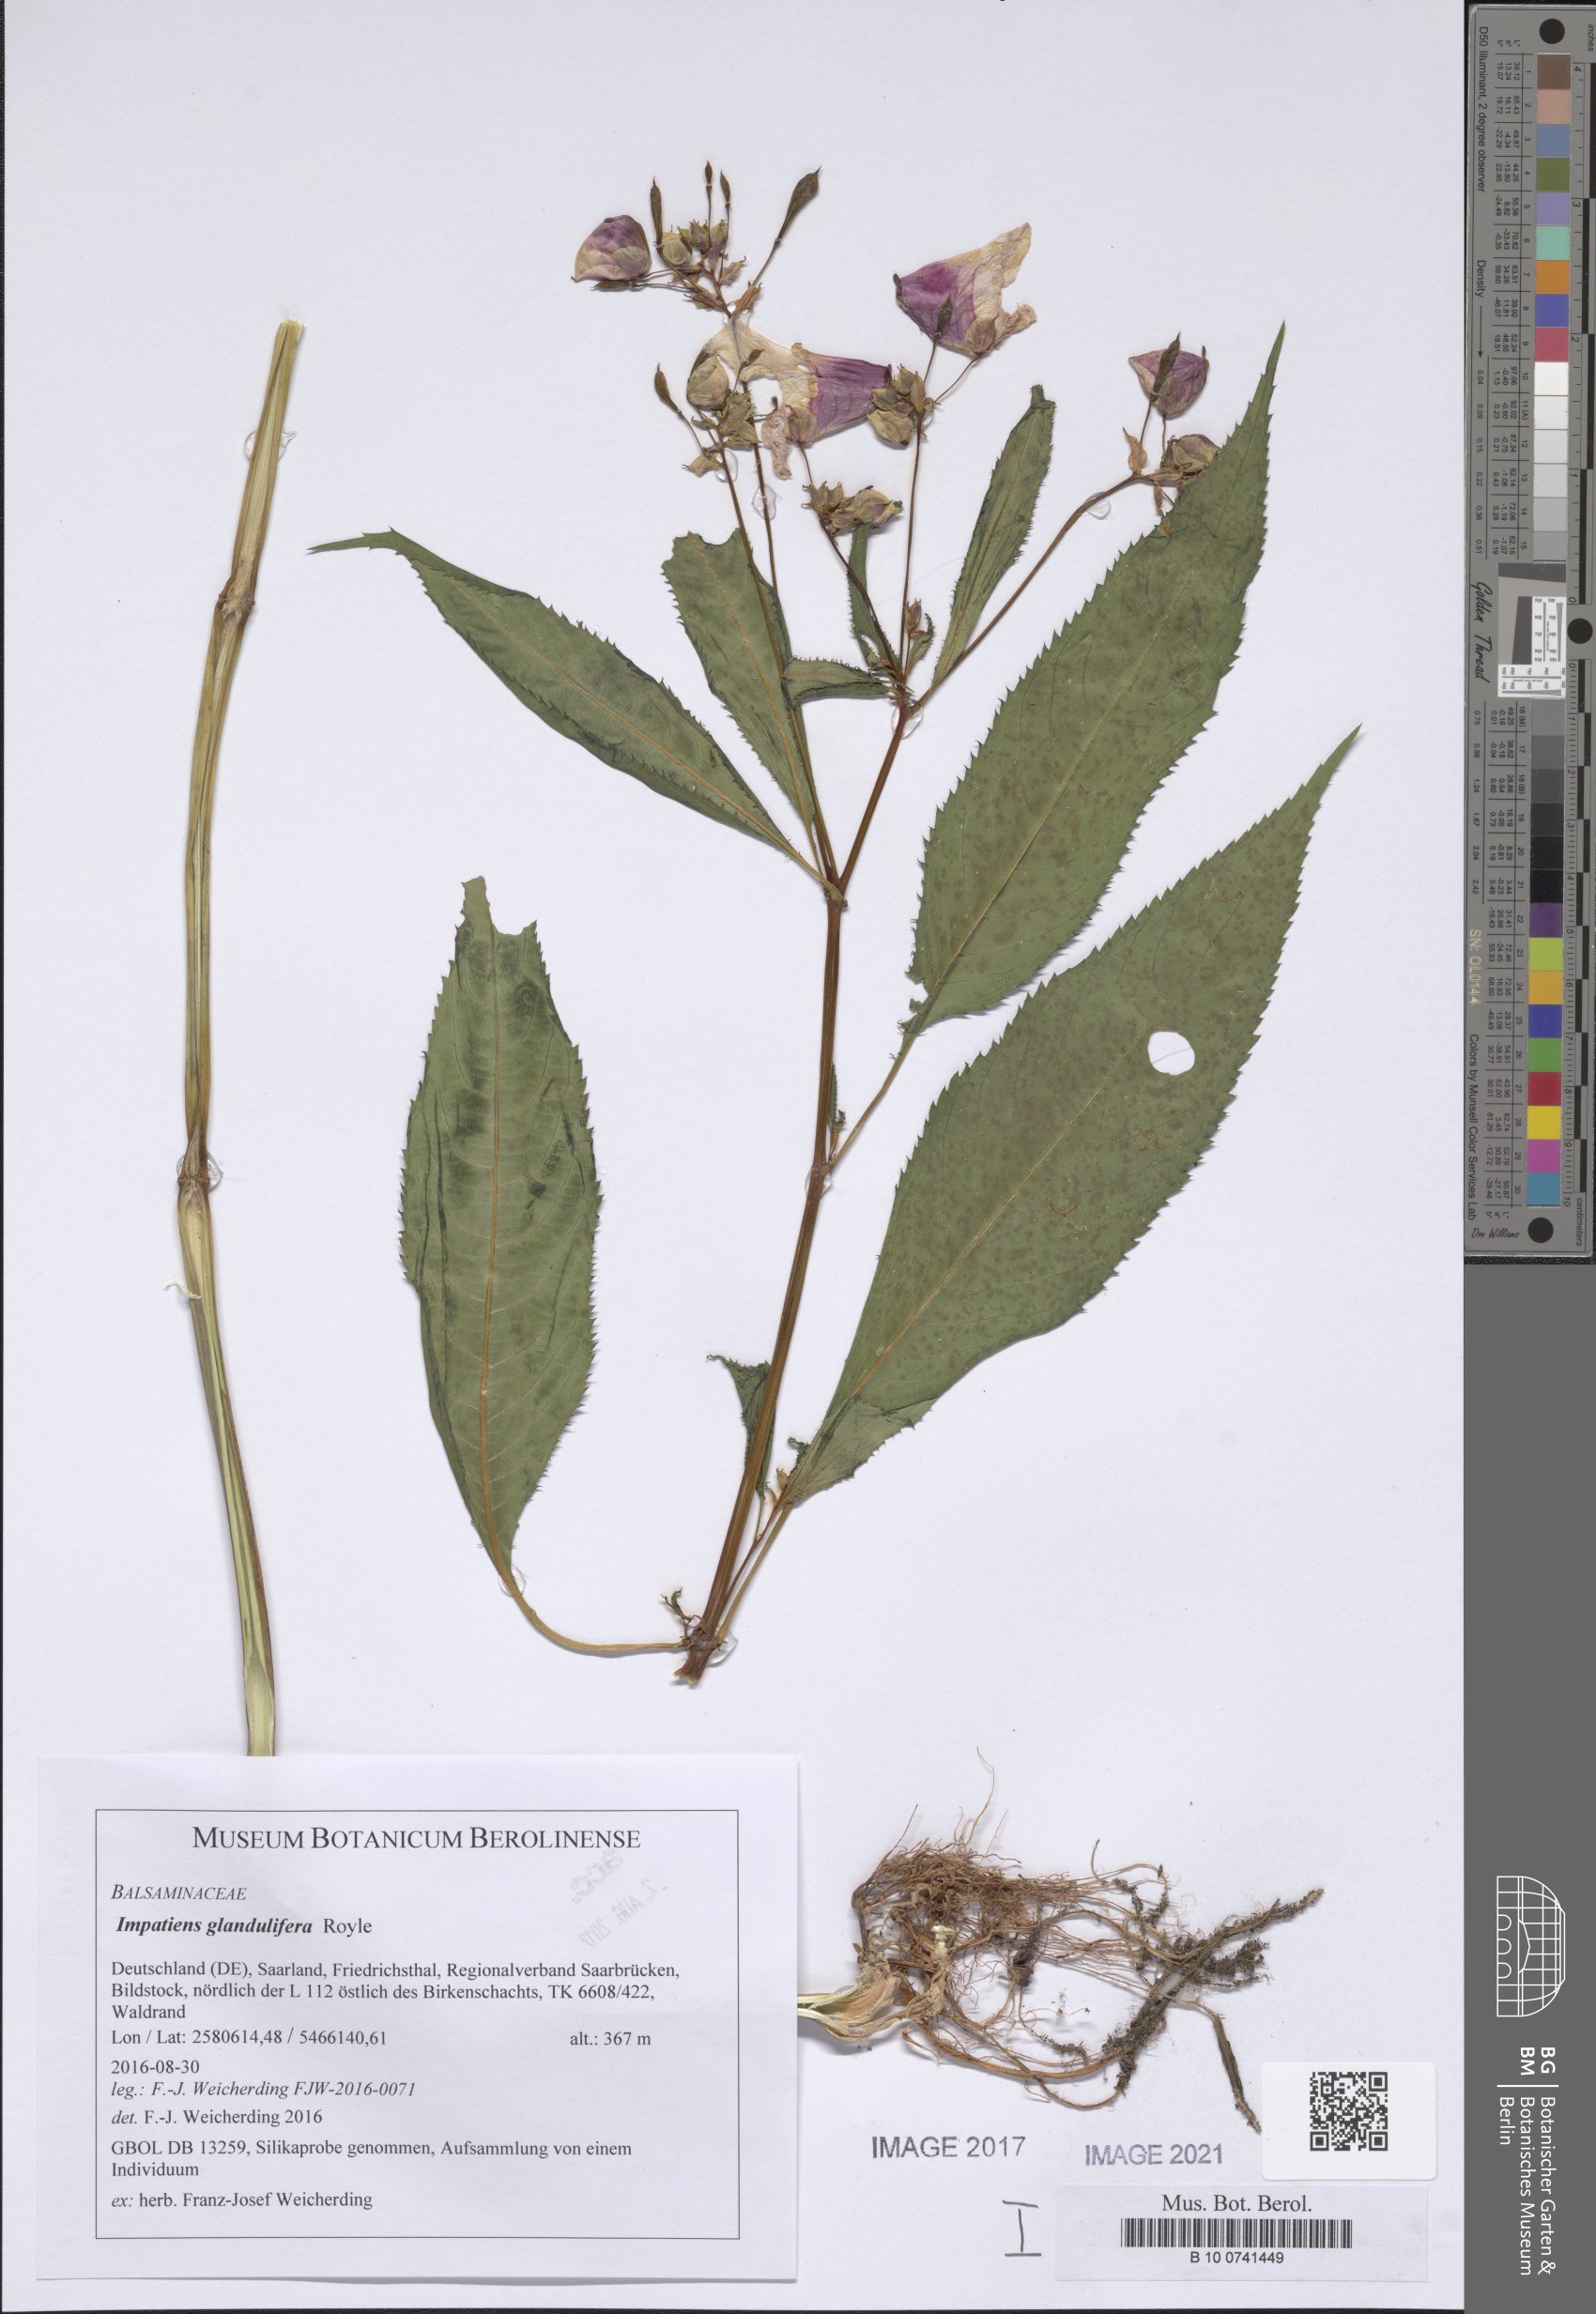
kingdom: Plantae
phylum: Tracheophyta
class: Magnoliopsida
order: Ericales
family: Balsaminaceae
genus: Impatiens
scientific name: Impatiens glandulifera
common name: Himalayan balsam
